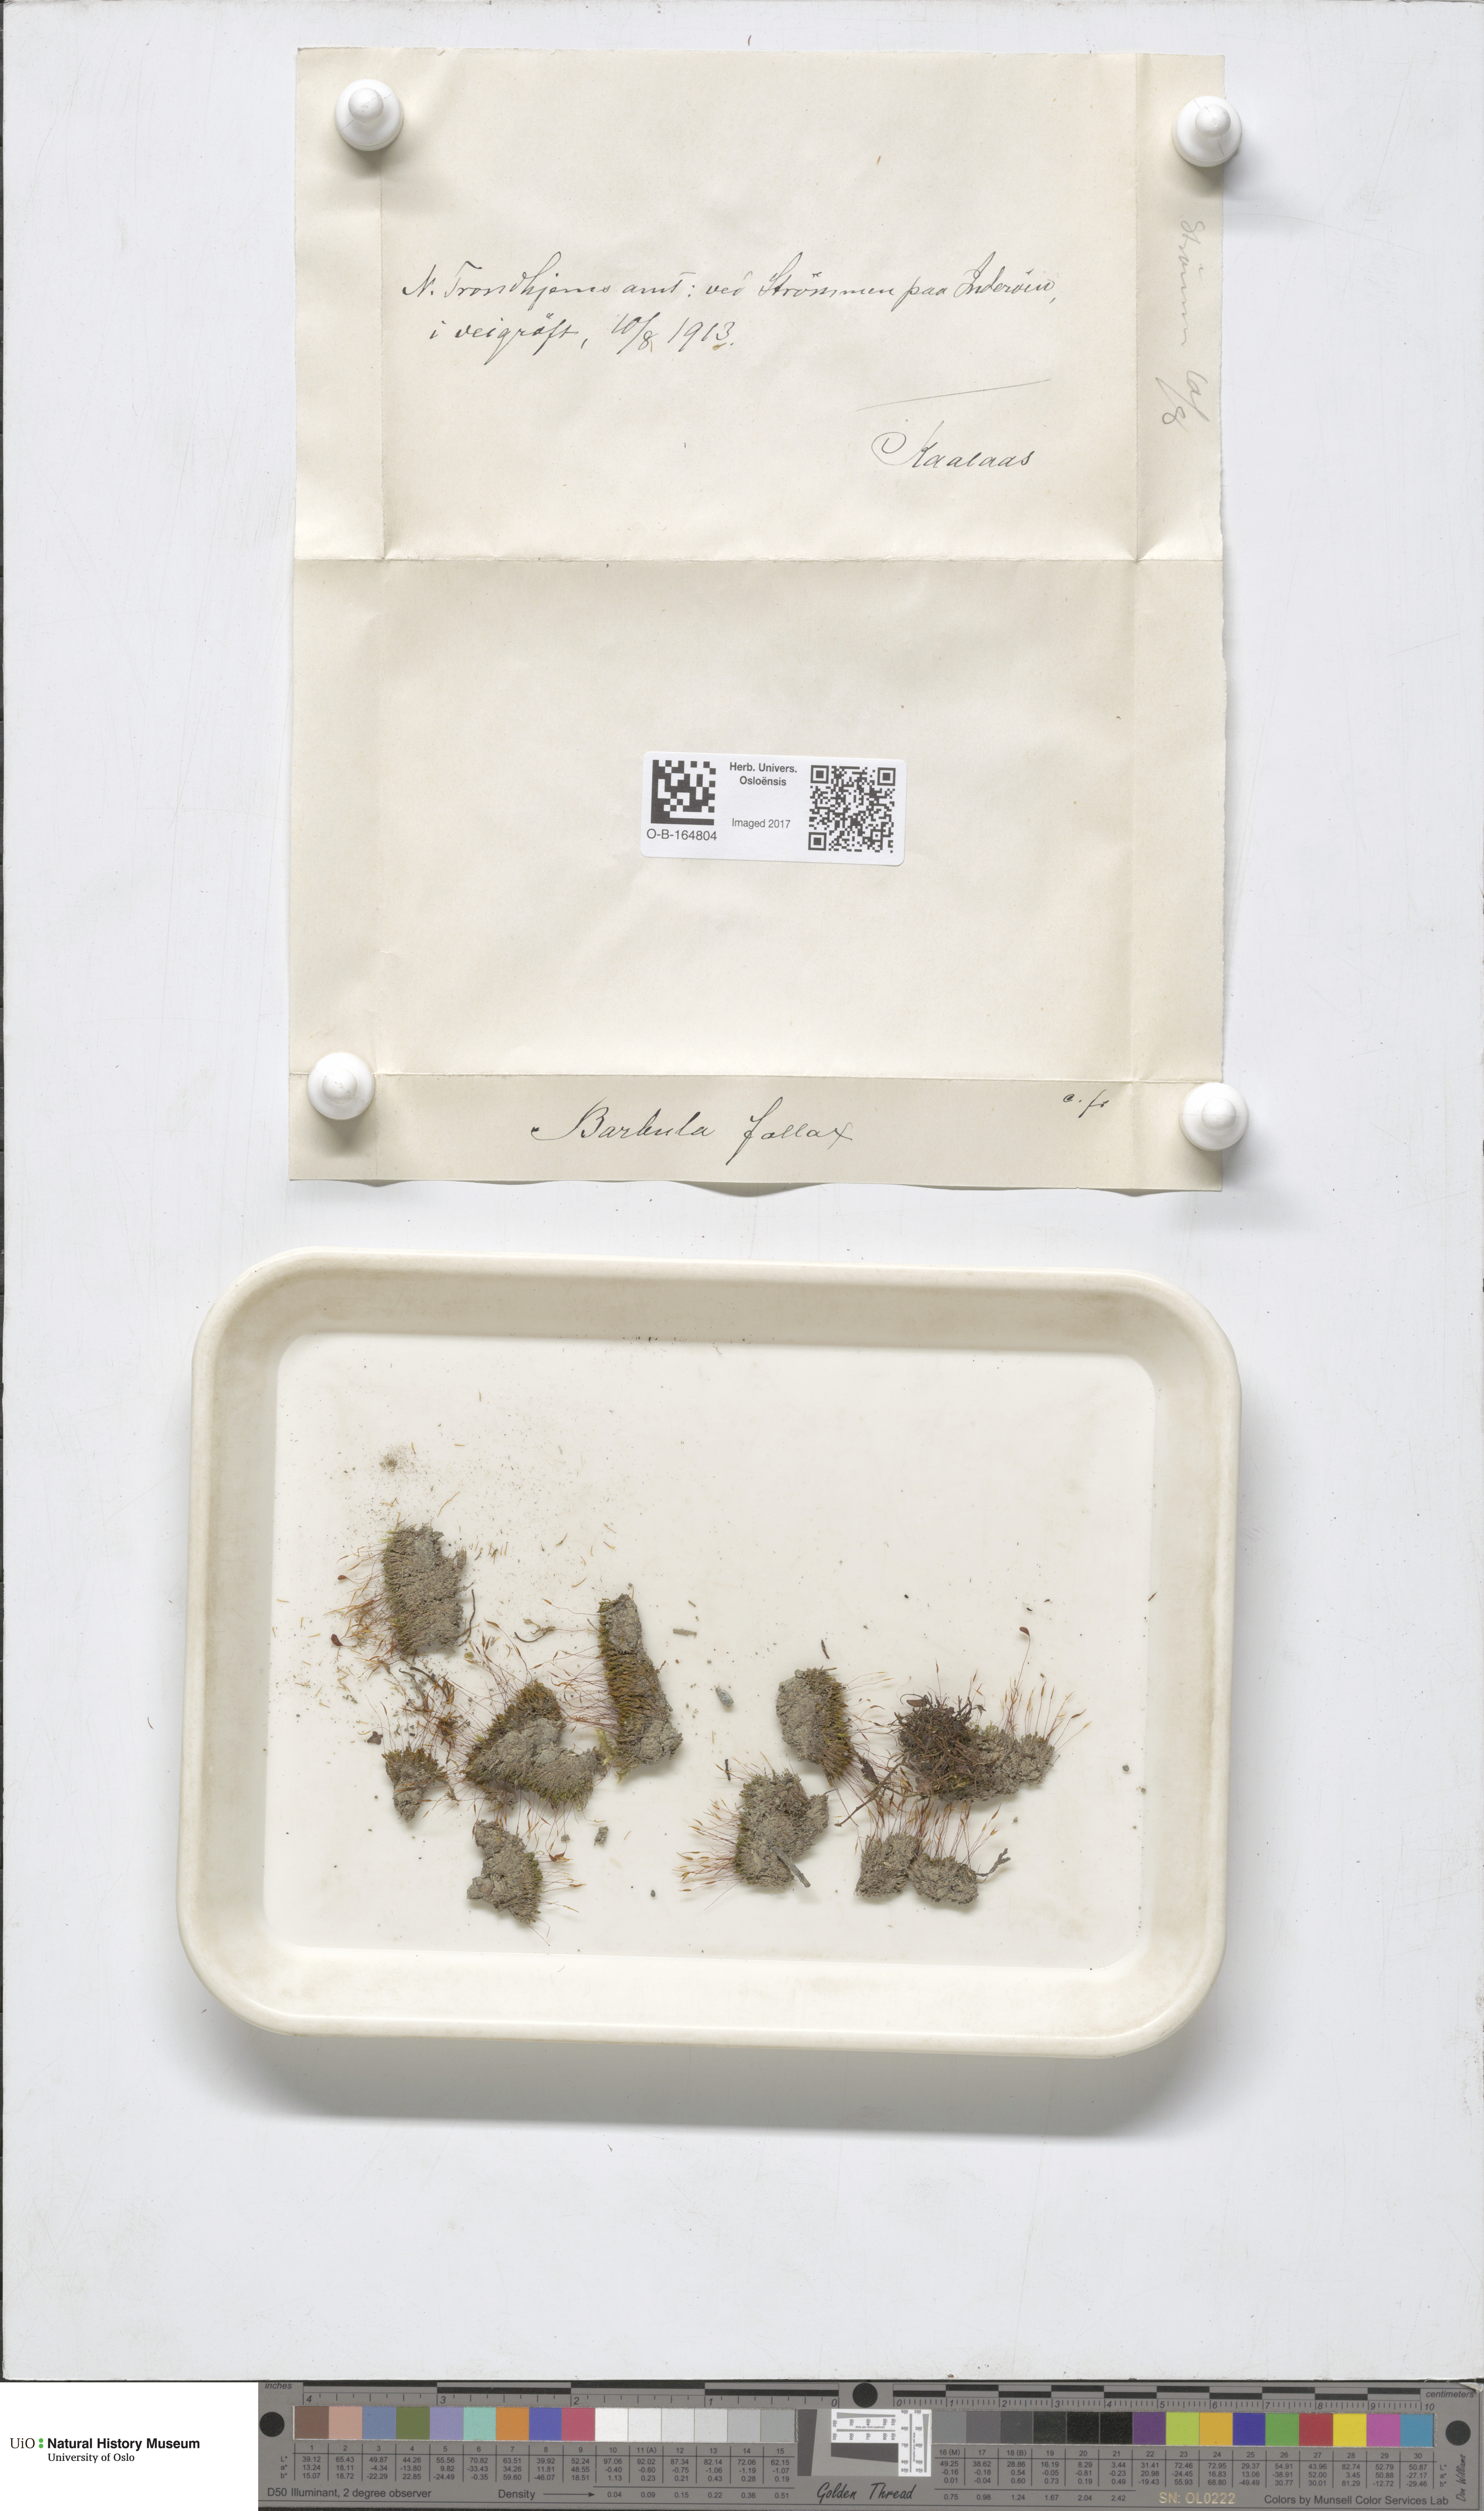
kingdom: Plantae
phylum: Bryophyta
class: Bryopsida
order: Pottiales
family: Pottiaceae
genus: Geheebia
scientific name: Geheebia fallax
